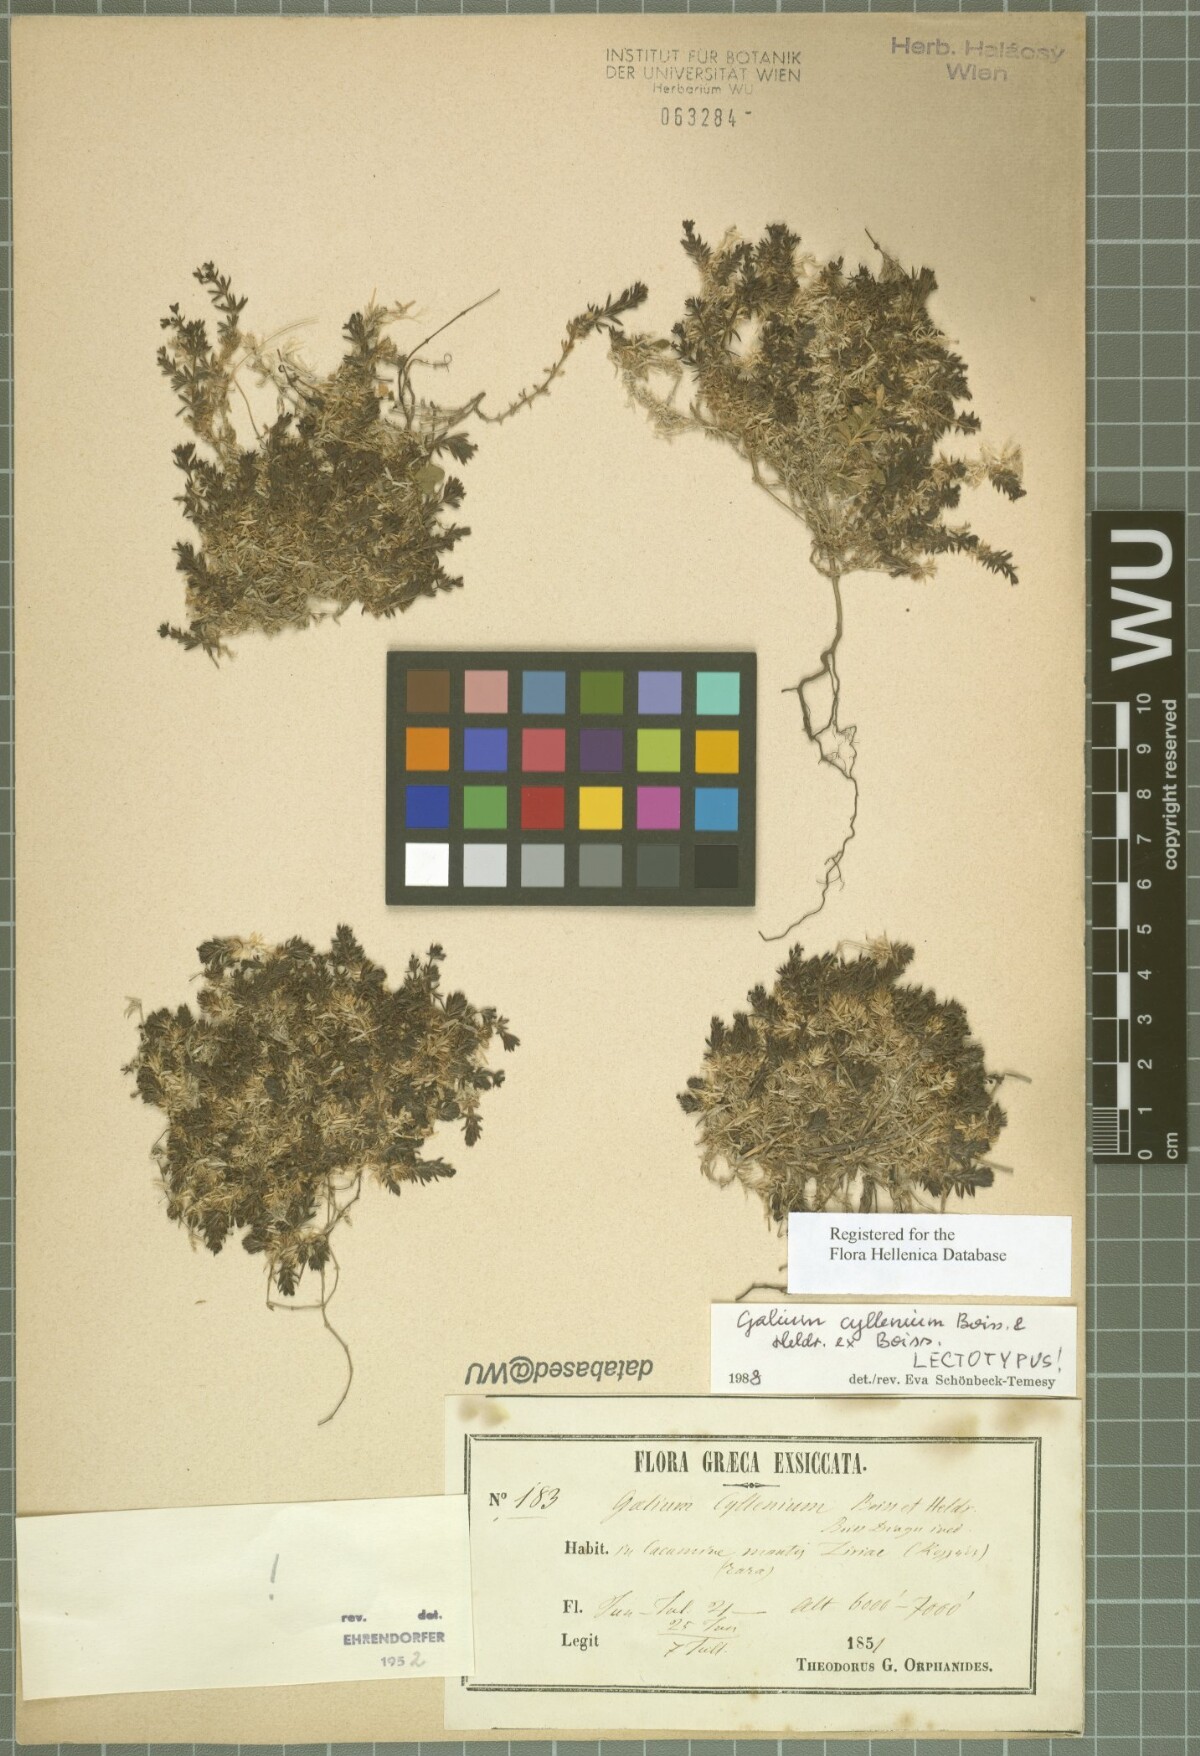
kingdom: Plantae
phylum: Tracheophyta
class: Magnoliopsida
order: Gentianales
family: Rubiaceae
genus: Galium
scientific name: Galium cyllenium
